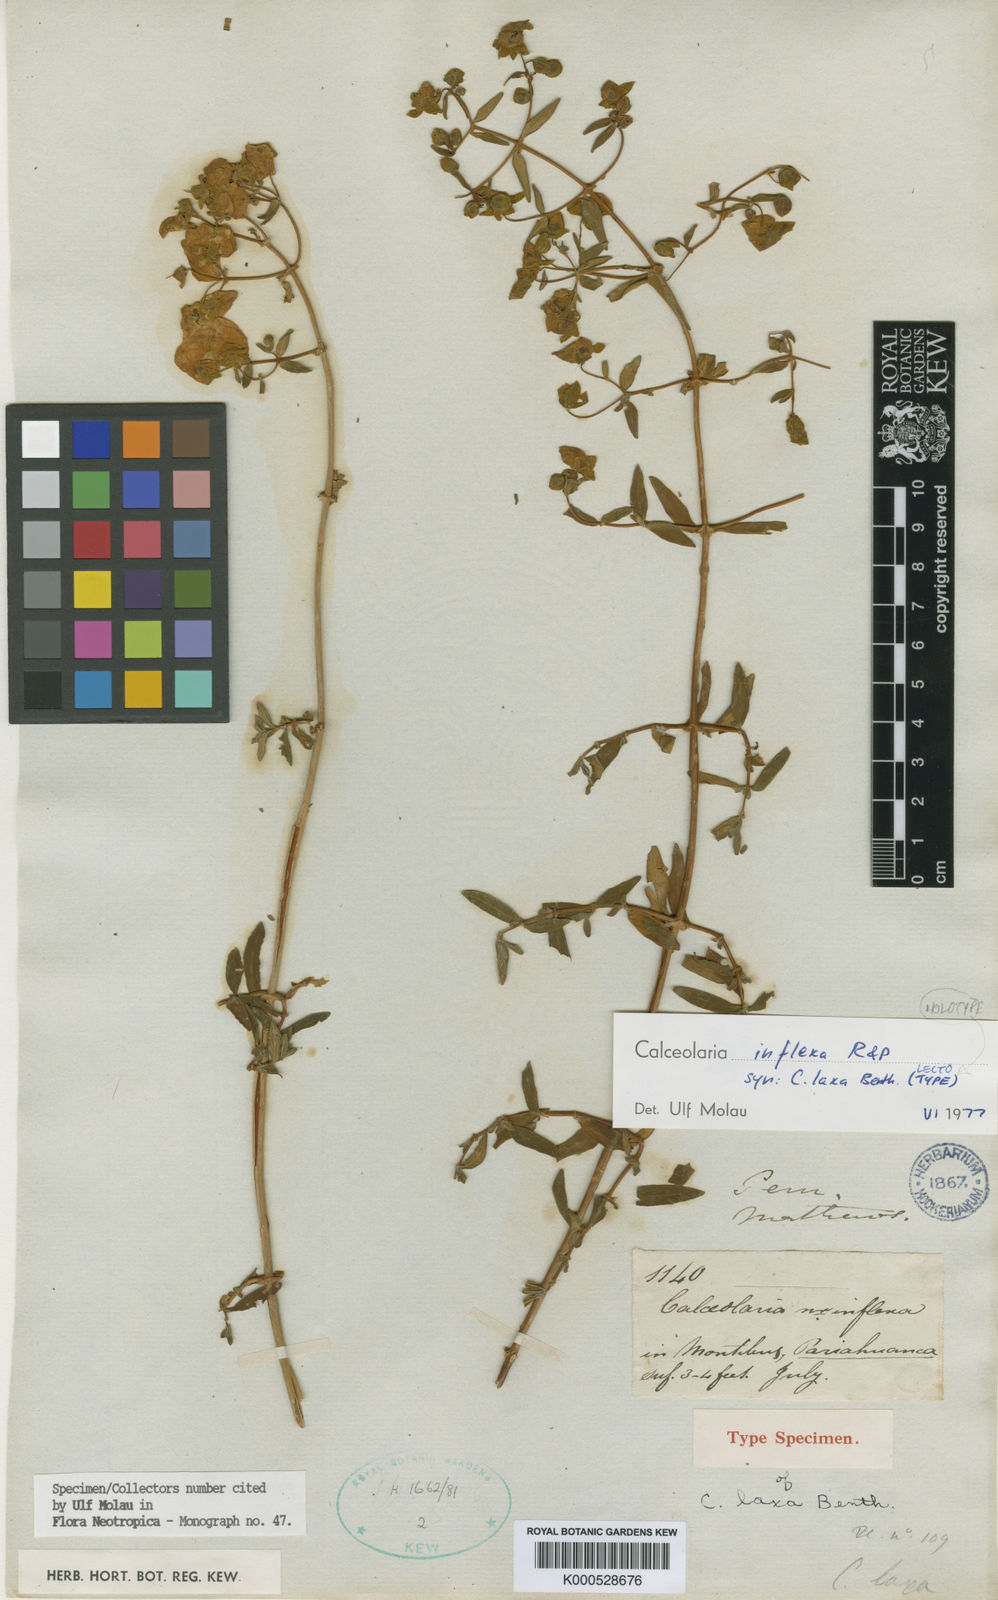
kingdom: Plantae
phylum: Tracheophyta
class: Magnoliopsida
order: Lamiales
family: Calceolariaceae
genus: Calceolaria
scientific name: Calceolaria inflexa
